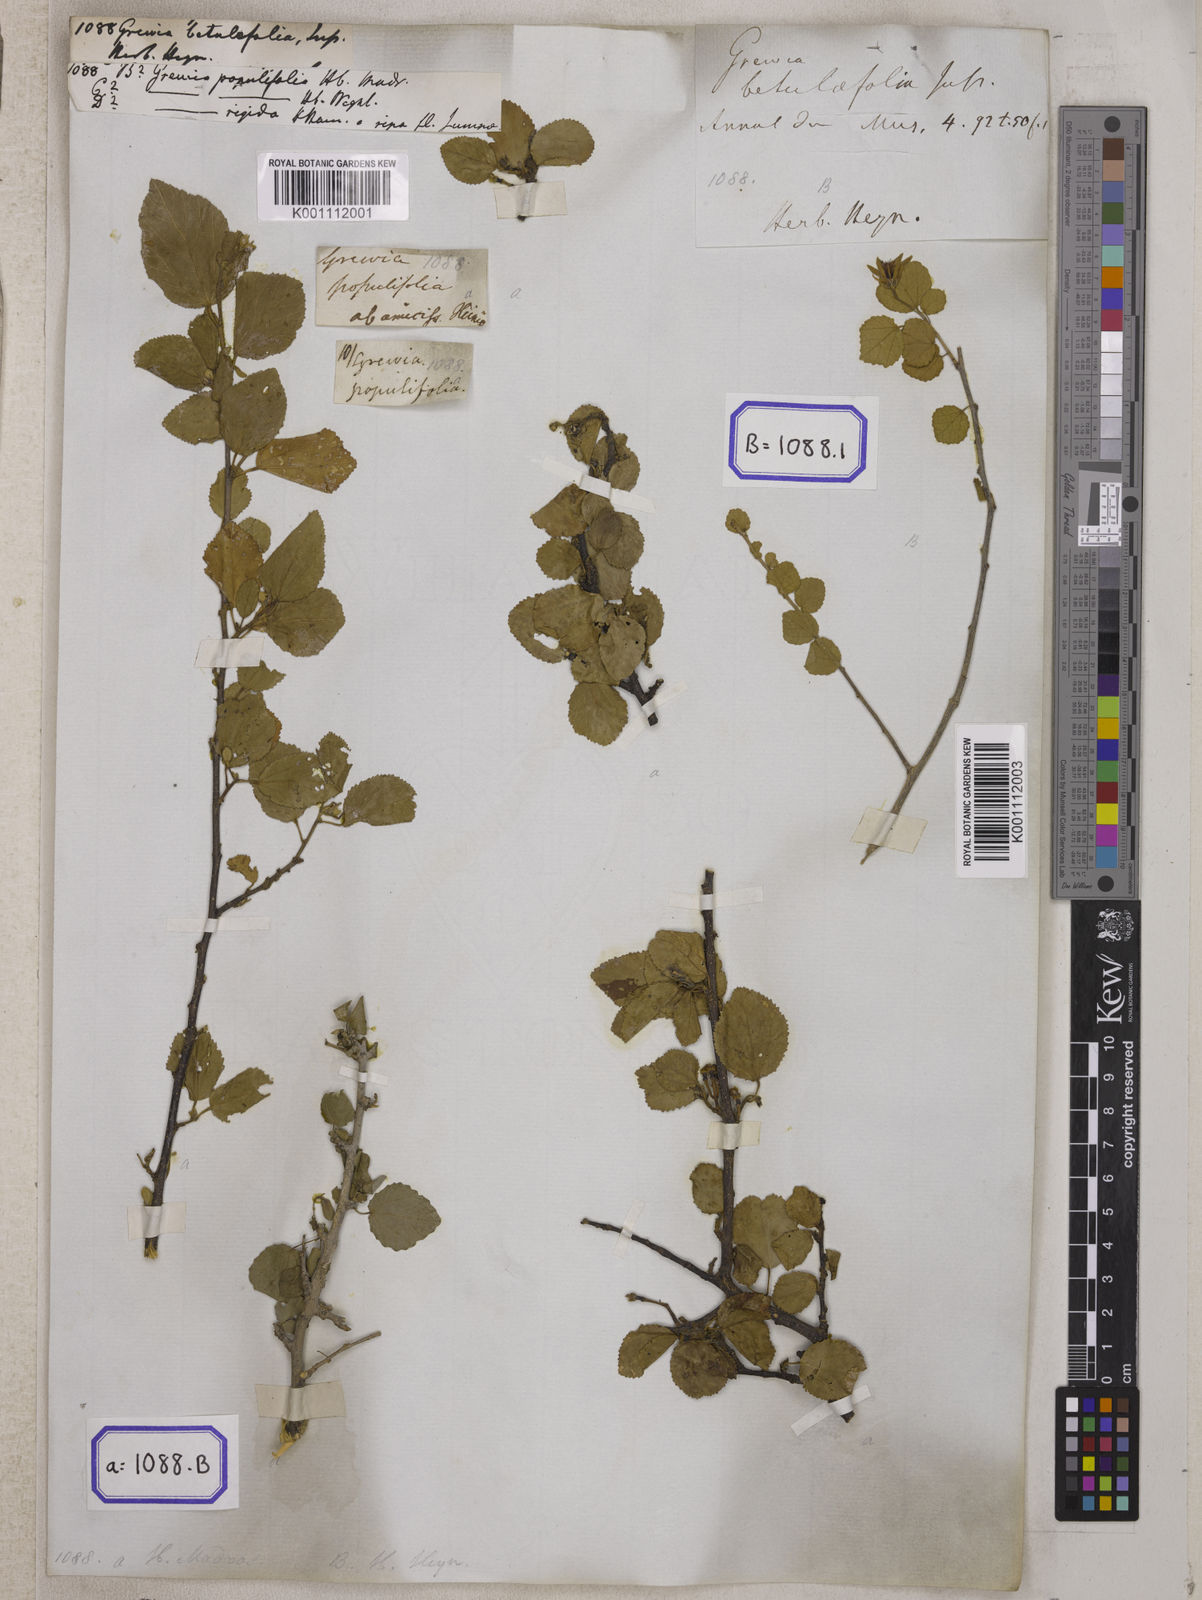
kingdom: Plantae
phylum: Tracheophyta
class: Magnoliopsida
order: Malvales
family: Malvaceae
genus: Grewia
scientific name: Grewia tenax
